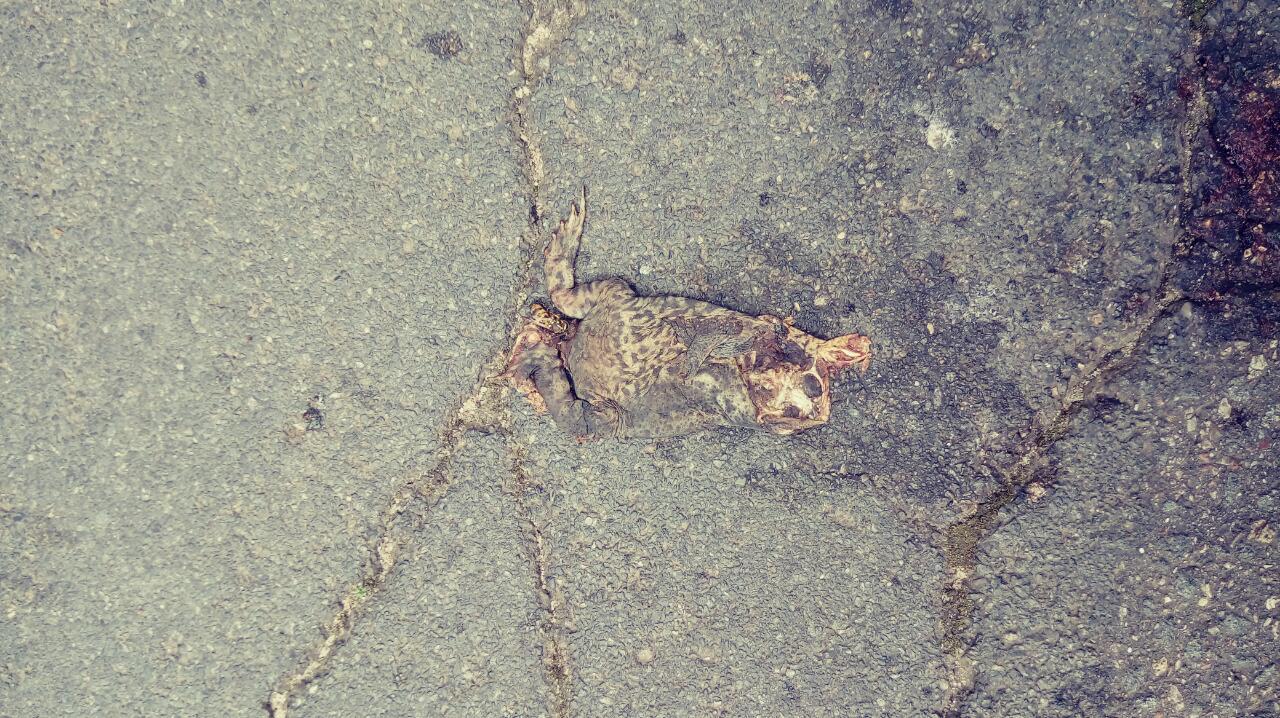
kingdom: Animalia
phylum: Chordata
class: Amphibia
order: Anura
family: Bufonidae
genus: Bufo
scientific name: Bufo bufo
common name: Common toad
